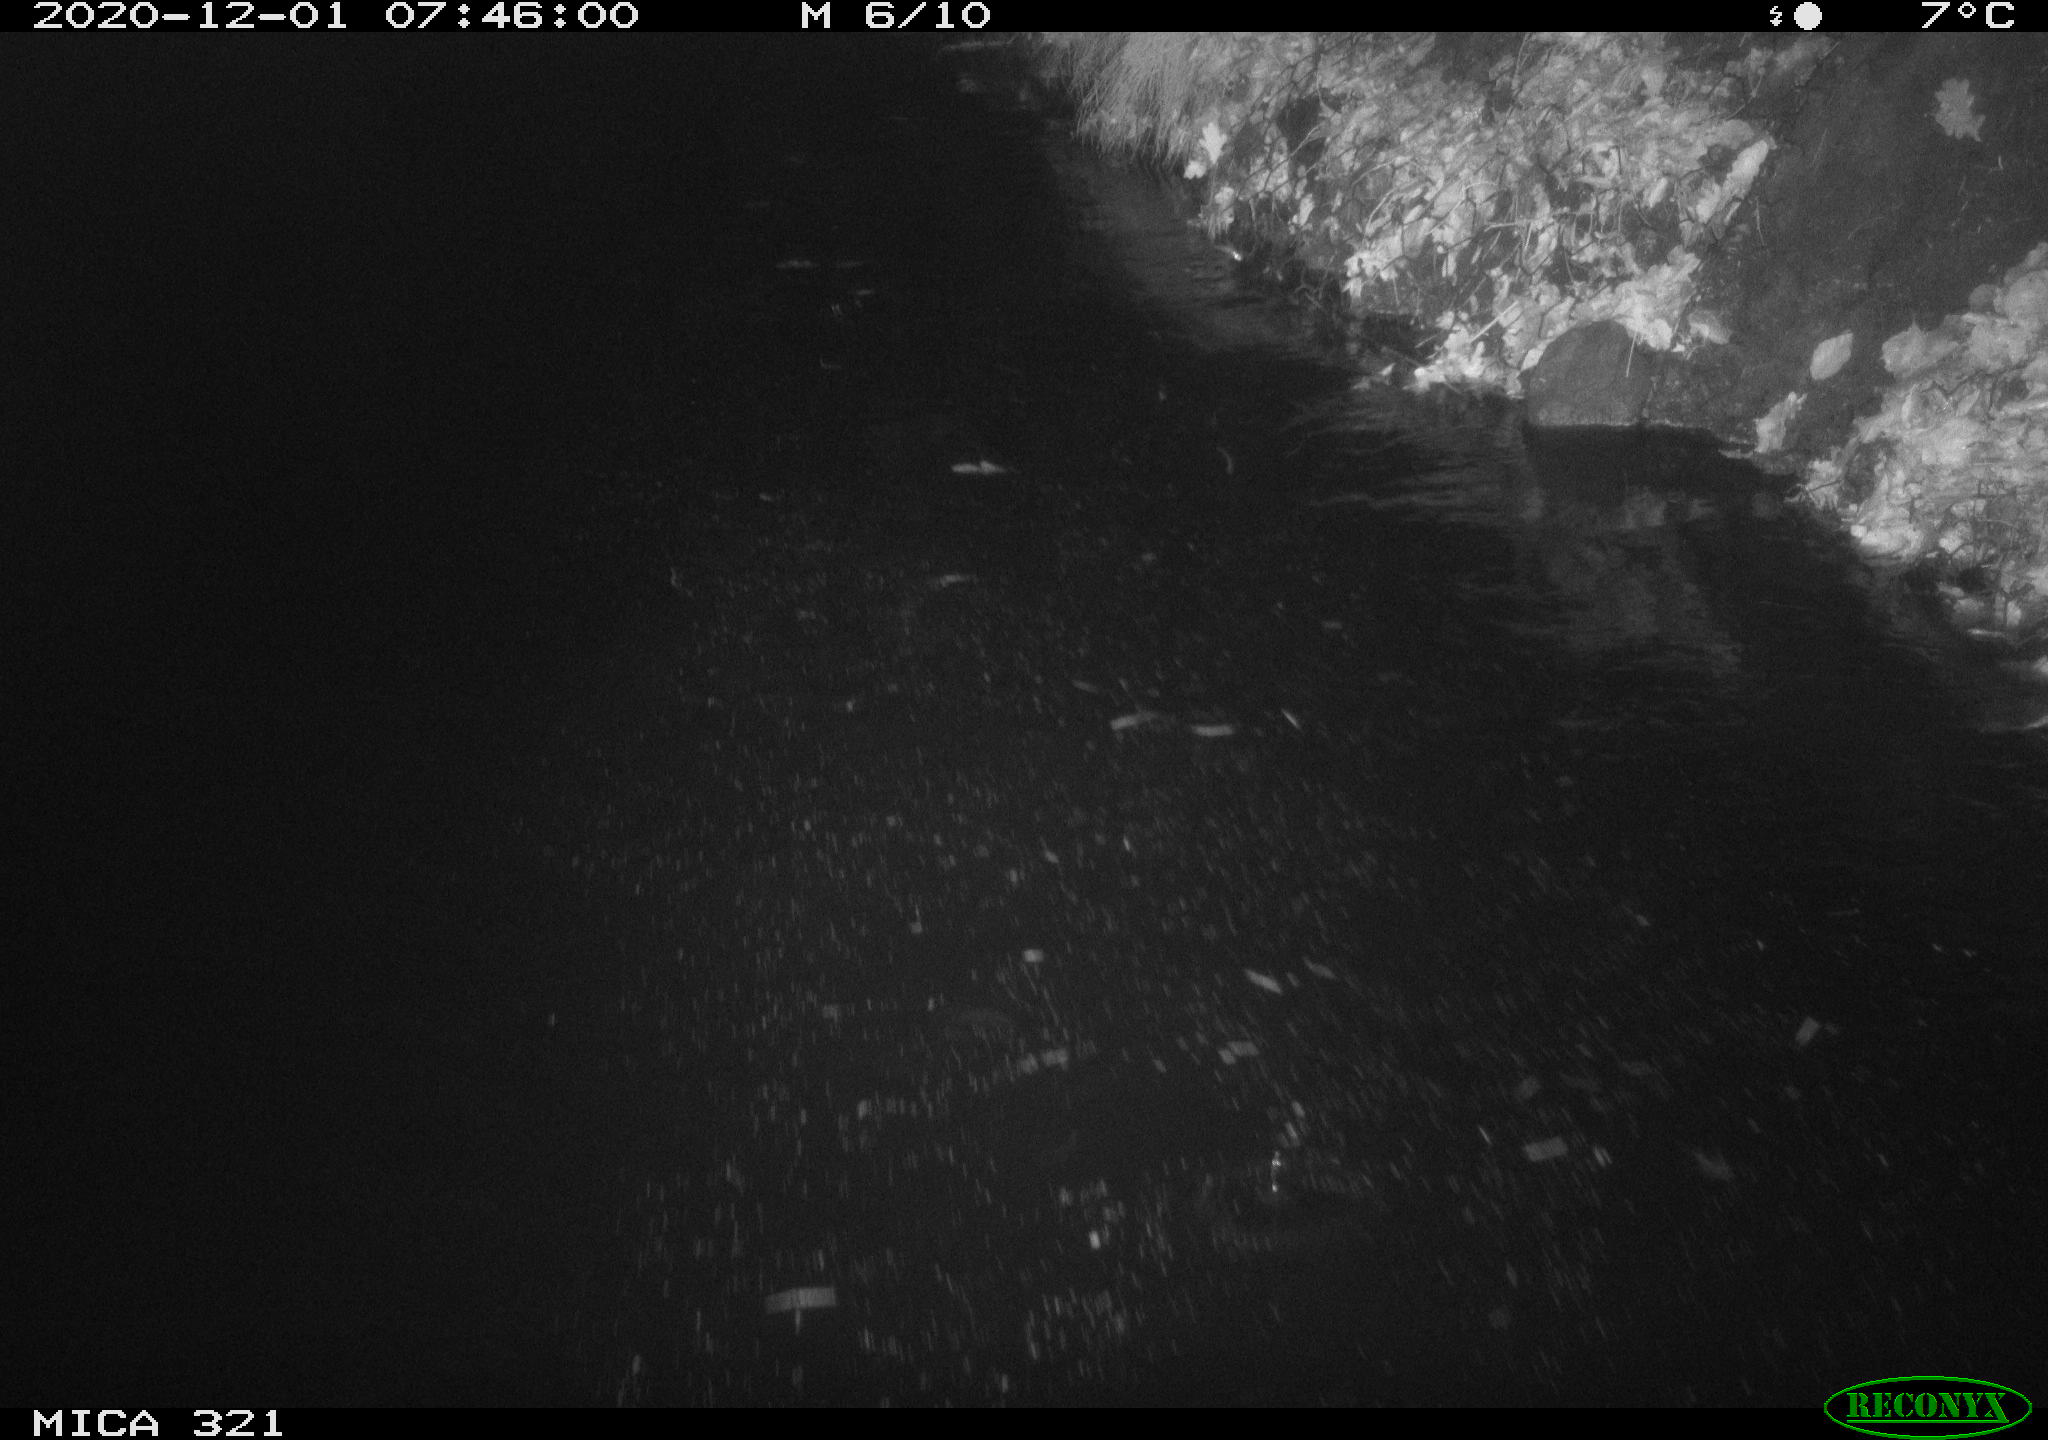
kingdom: Animalia
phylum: Chordata
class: Aves
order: Anseriformes
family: Anatidae
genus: Anas
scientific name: Anas platyrhynchos
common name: Mallard
